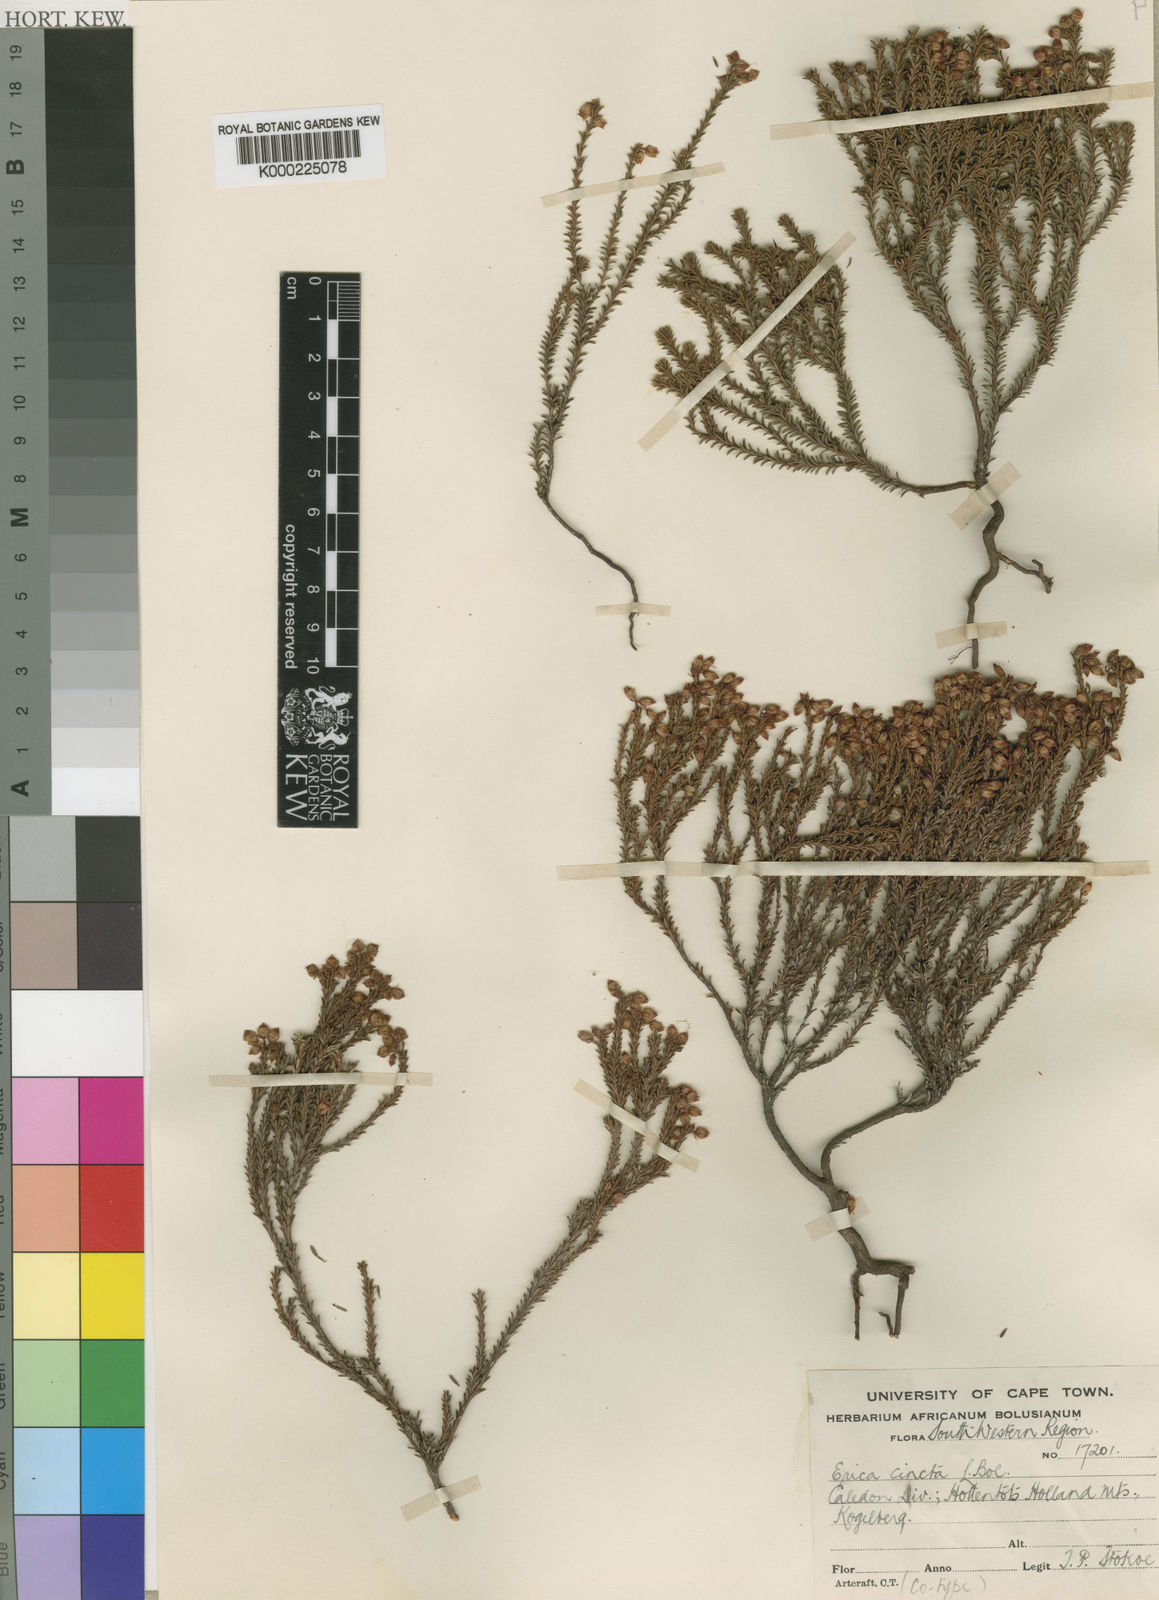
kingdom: Plantae
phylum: Tracheophyta
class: Magnoliopsida
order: Ericales
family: Ericaceae
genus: Erica
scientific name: Erica cincta
